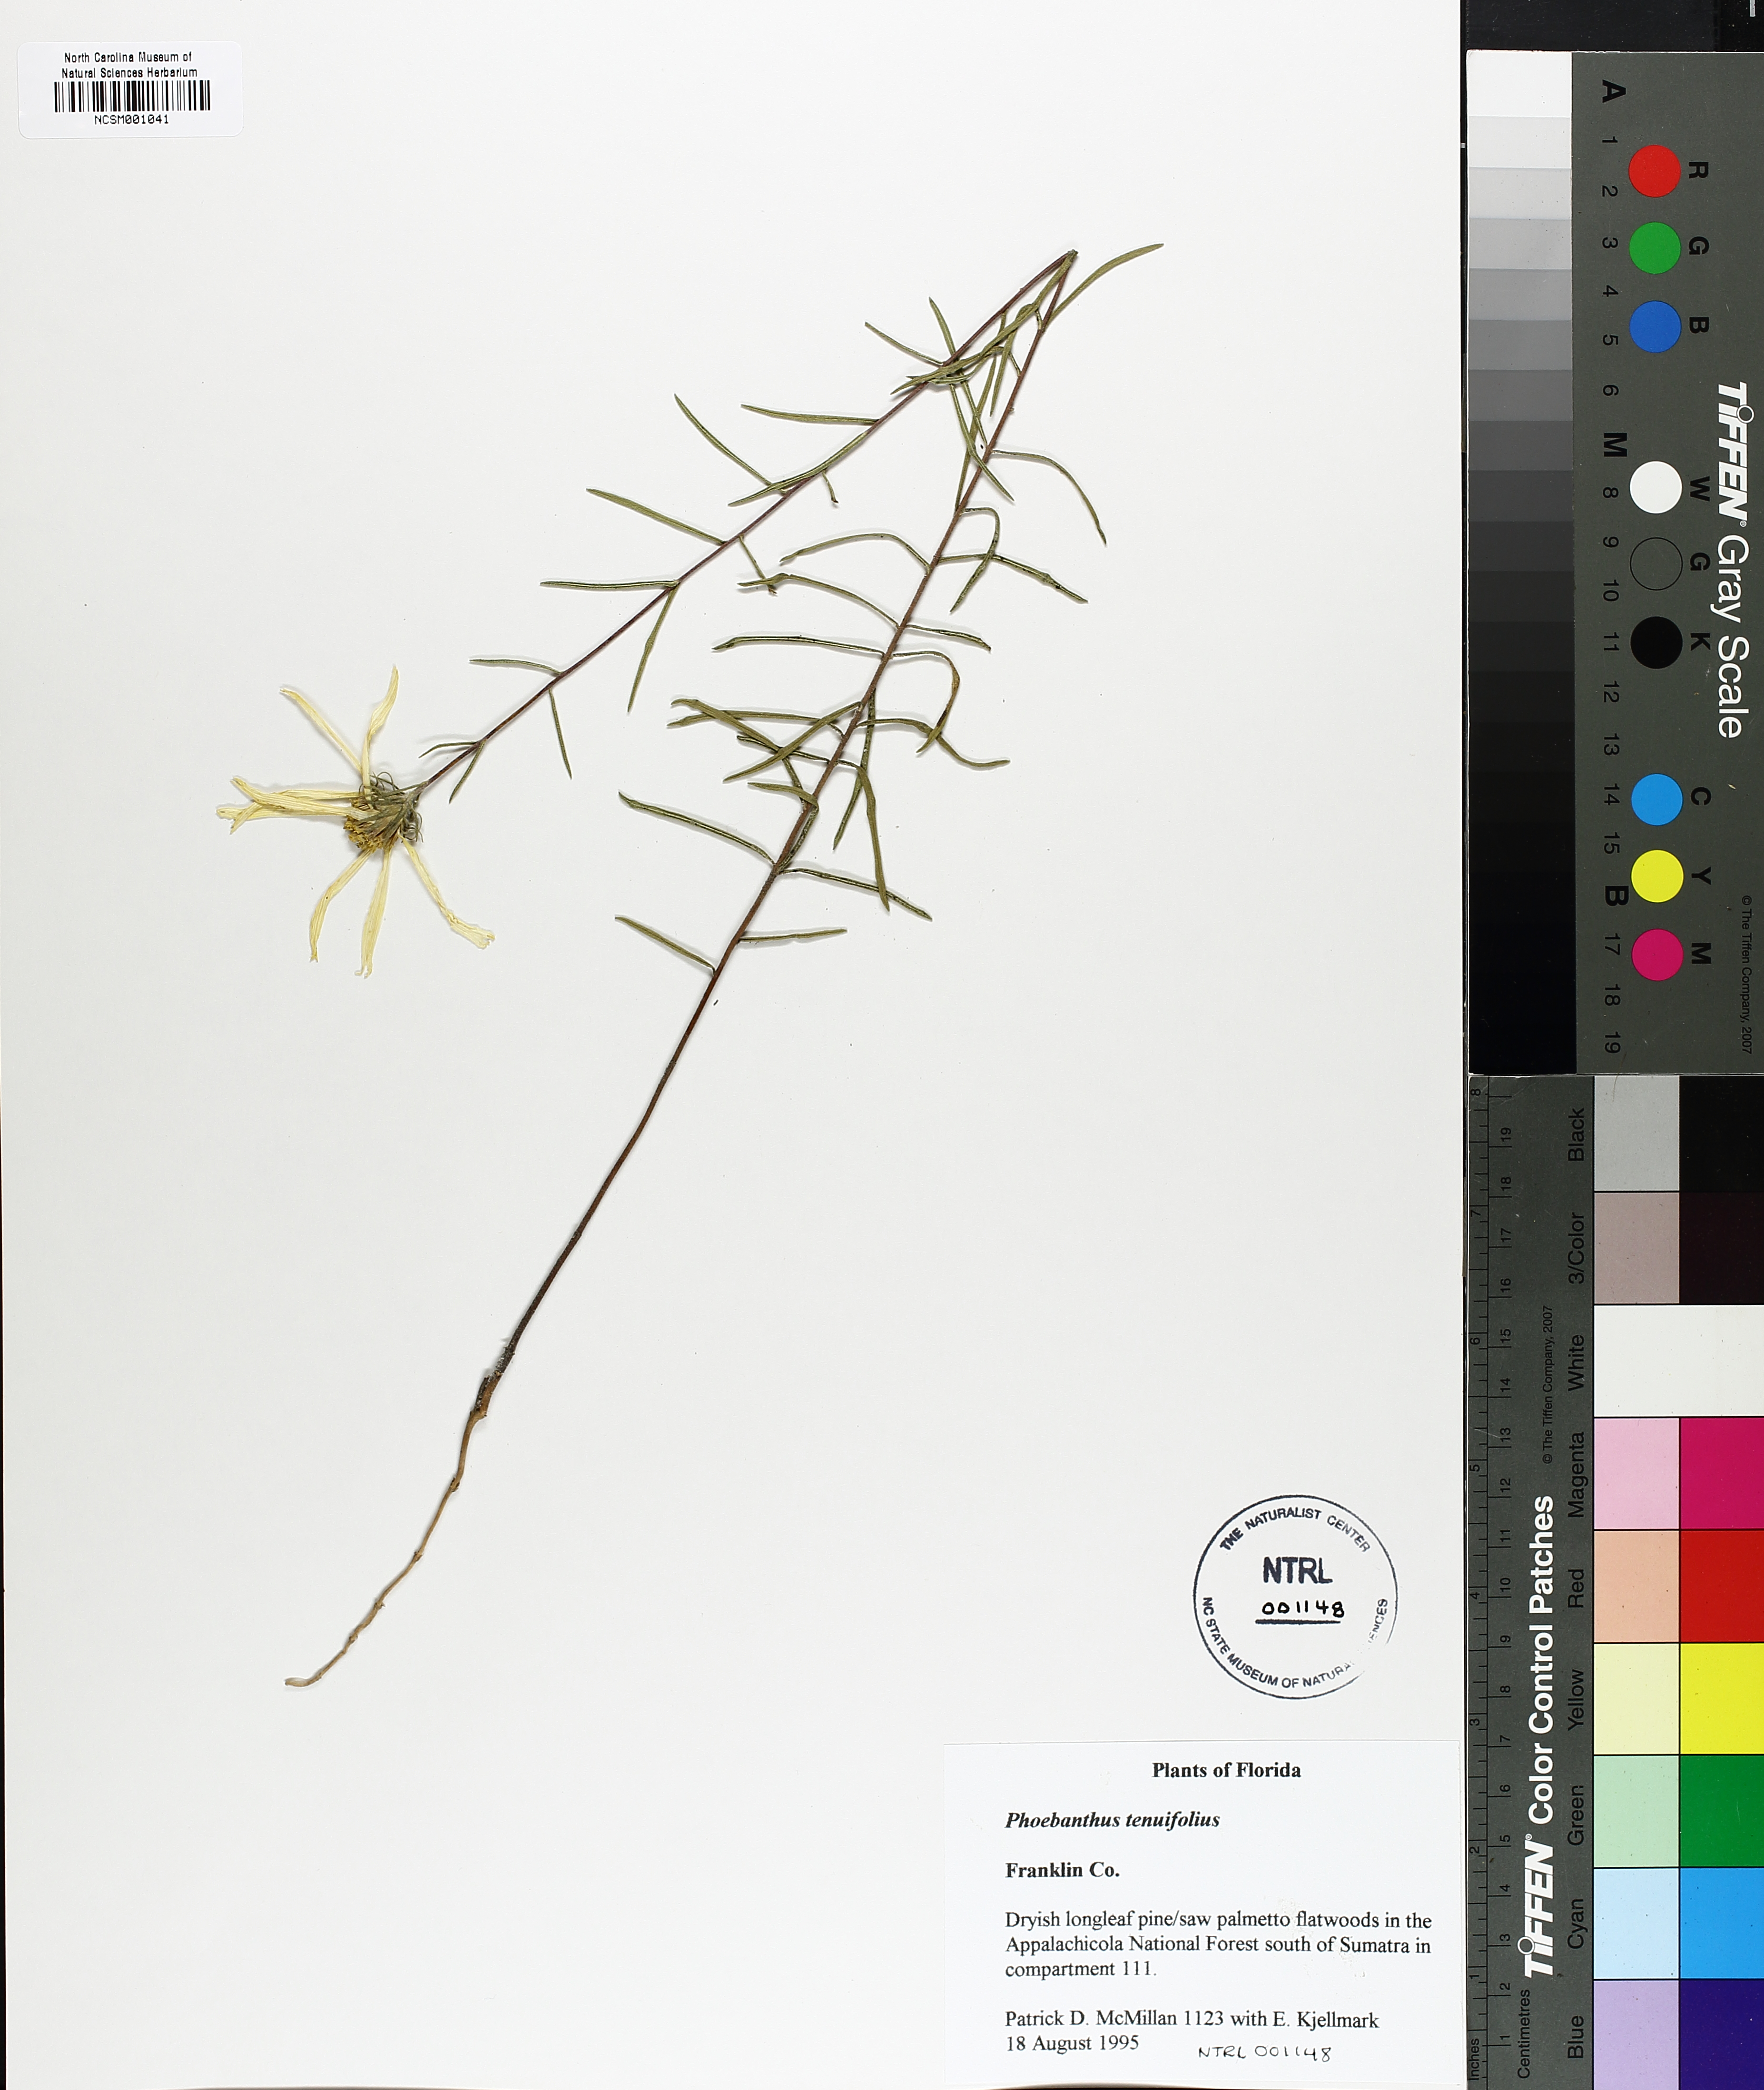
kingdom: Plantae
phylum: Tracheophyta
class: Magnoliopsida
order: Asterales
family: Asteraceae
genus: Phoebanthus
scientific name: Phoebanthus tenuifolia
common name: Pineland false sunflower
